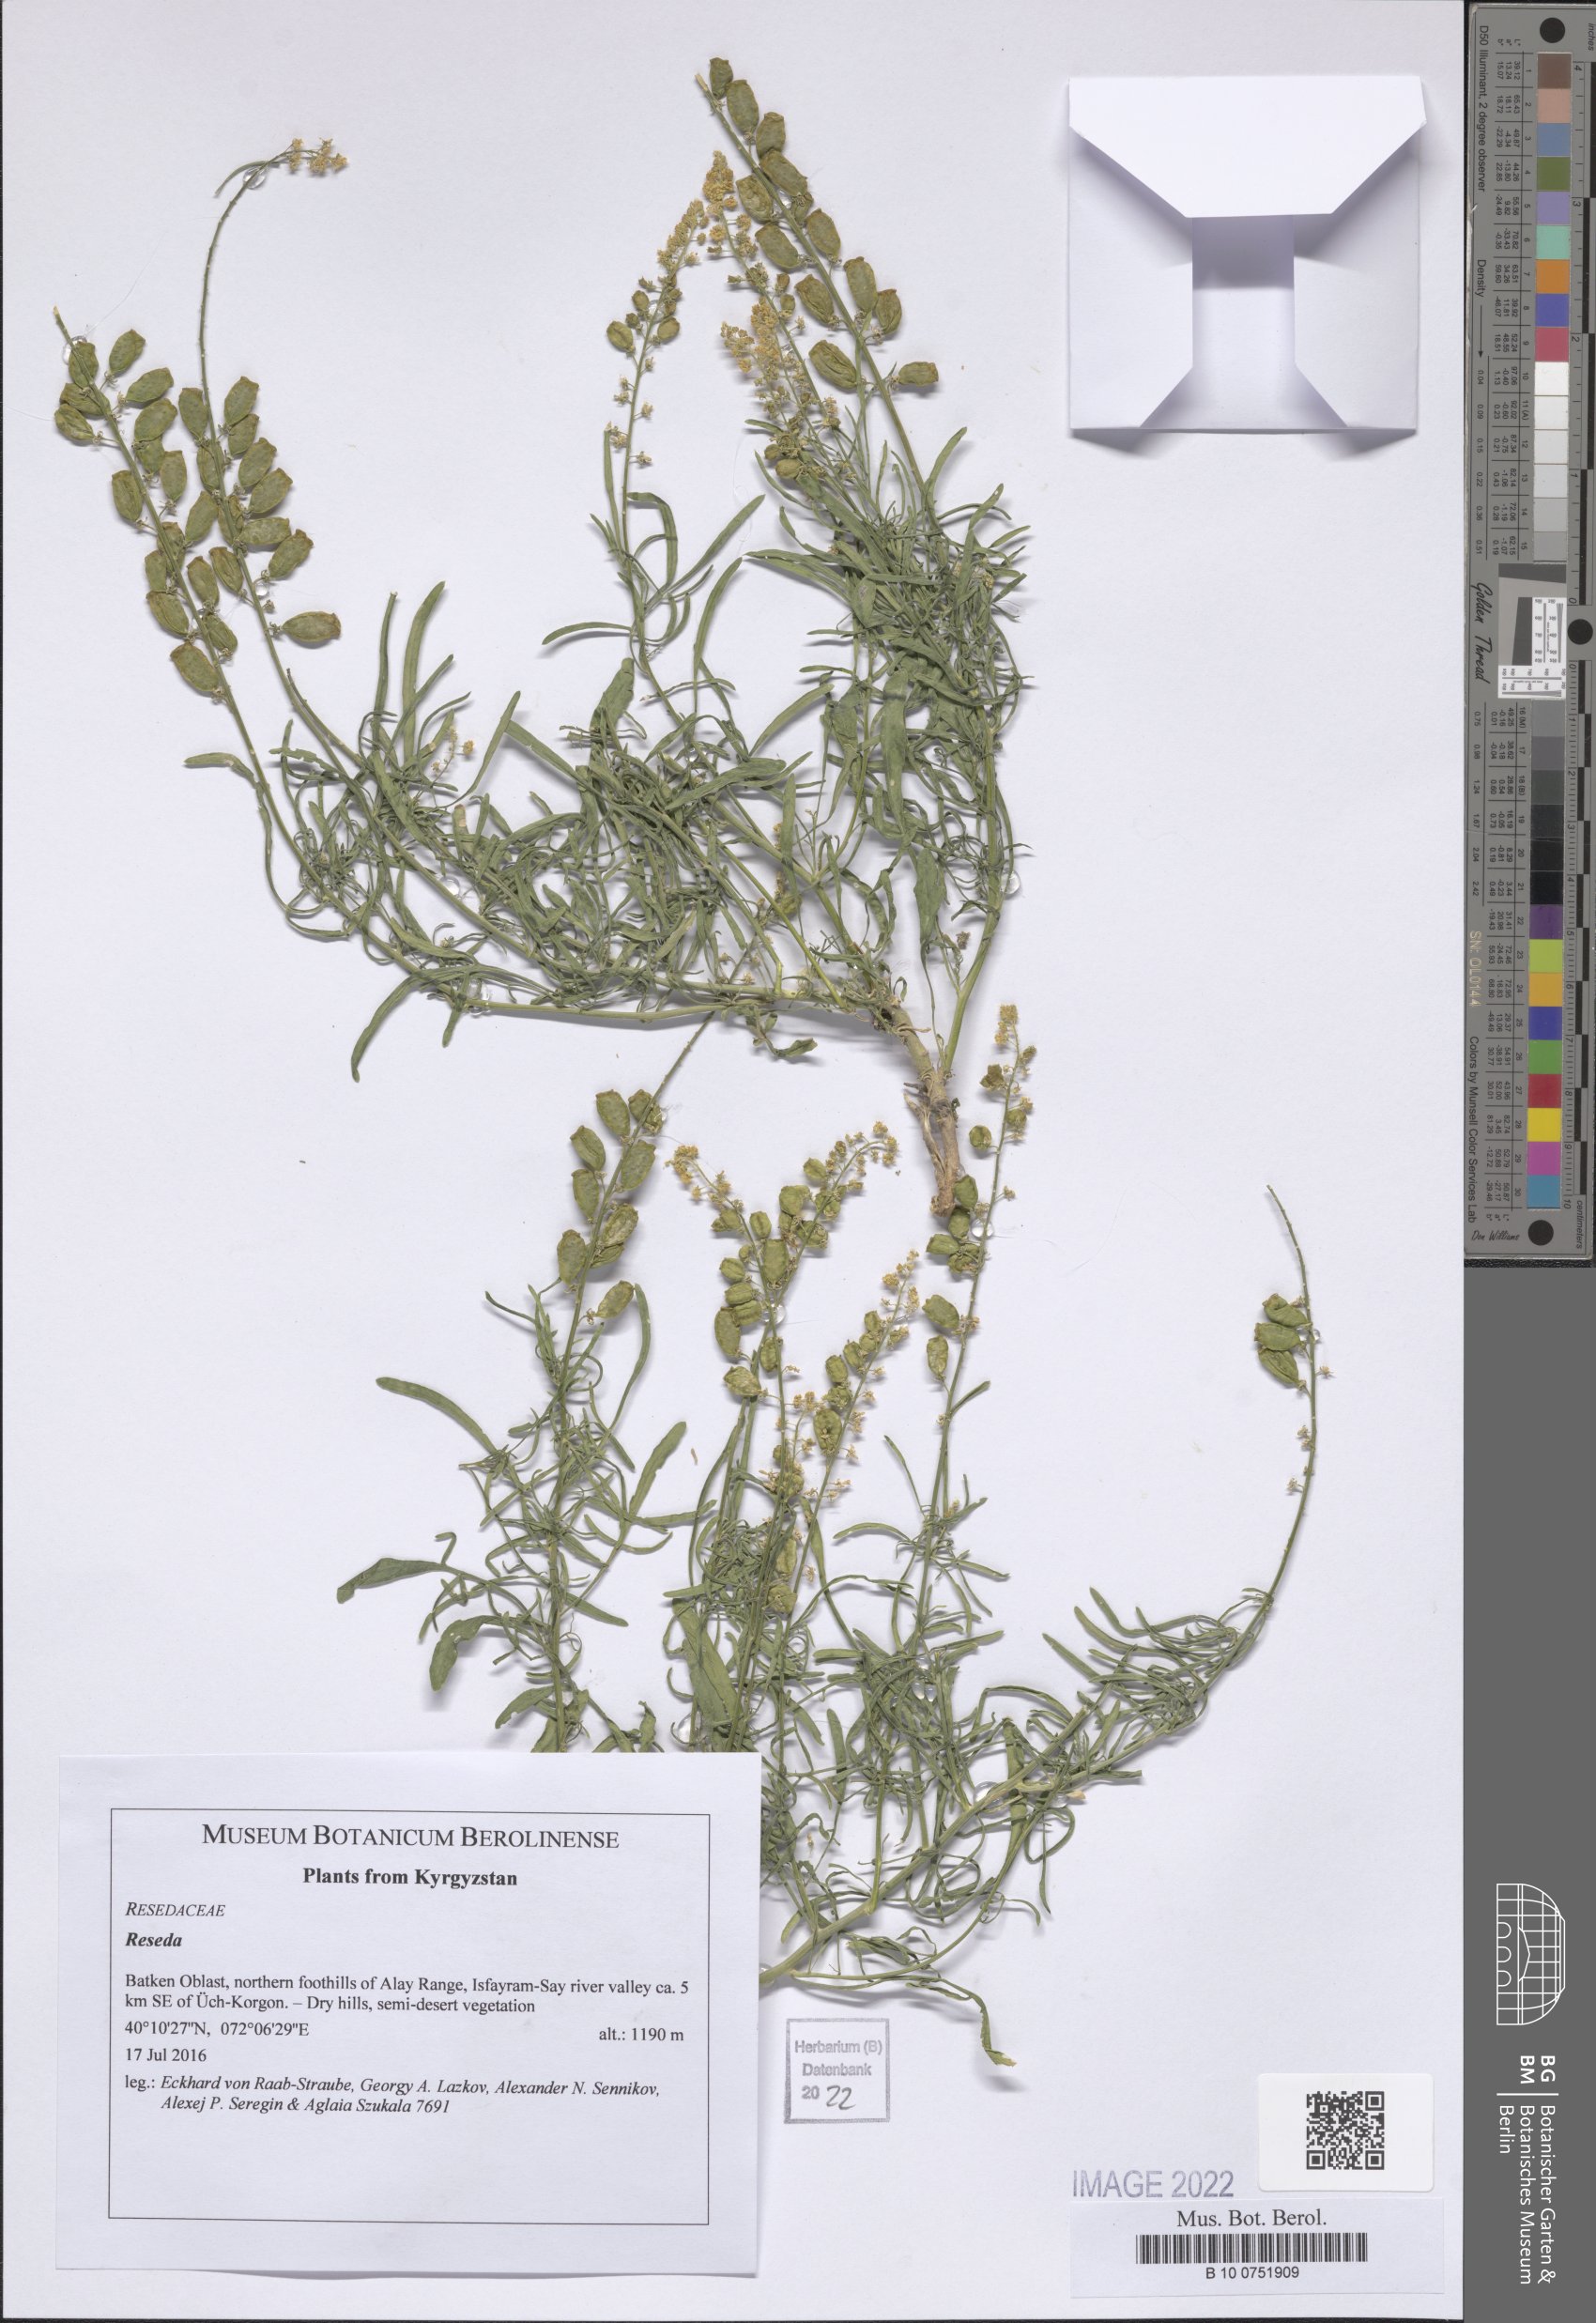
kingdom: Plantae
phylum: Tracheophyta
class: Magnoliopsida
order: Brassicales
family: Resedaceae
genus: Reseda
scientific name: Reseda
